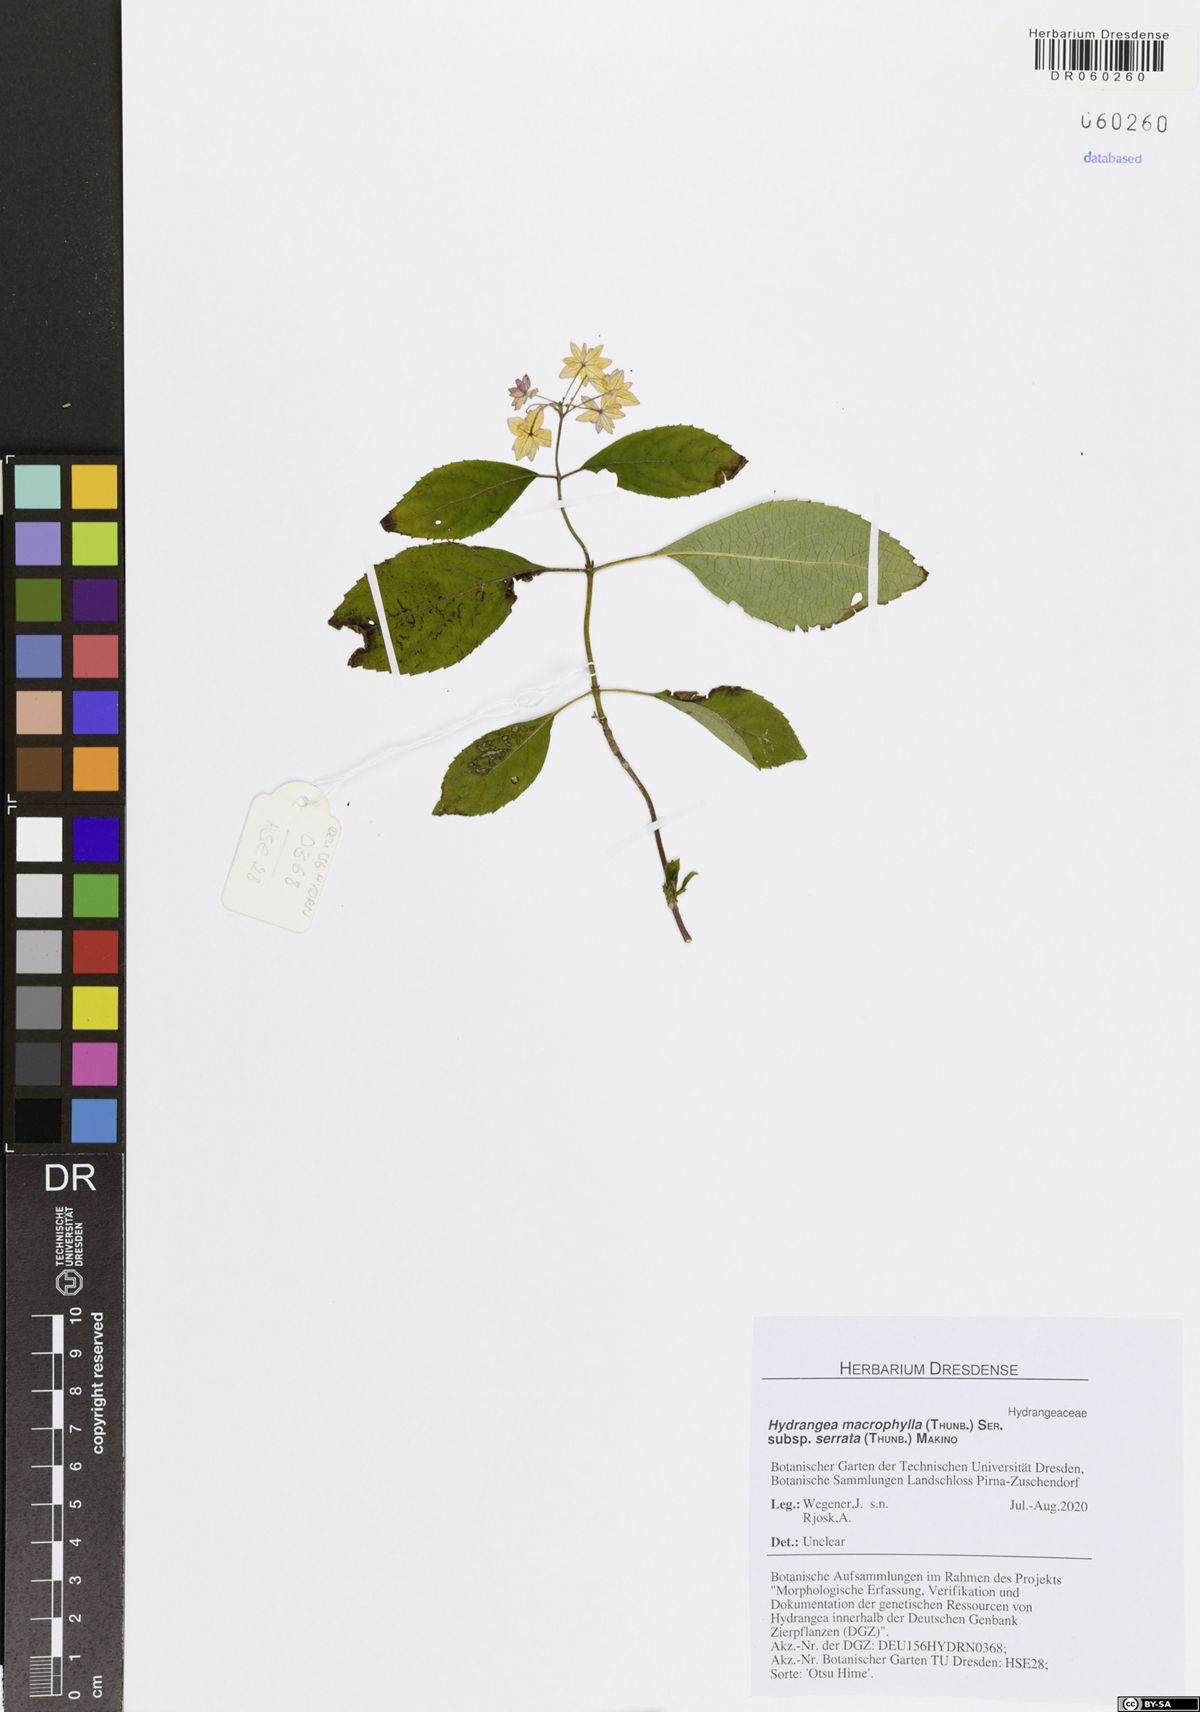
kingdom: Plantae
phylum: Tracheophyta
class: Magnoliopsida
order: Cornales
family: Hydrangeaceae
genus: Hydrangea
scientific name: Hydrangea serrata
